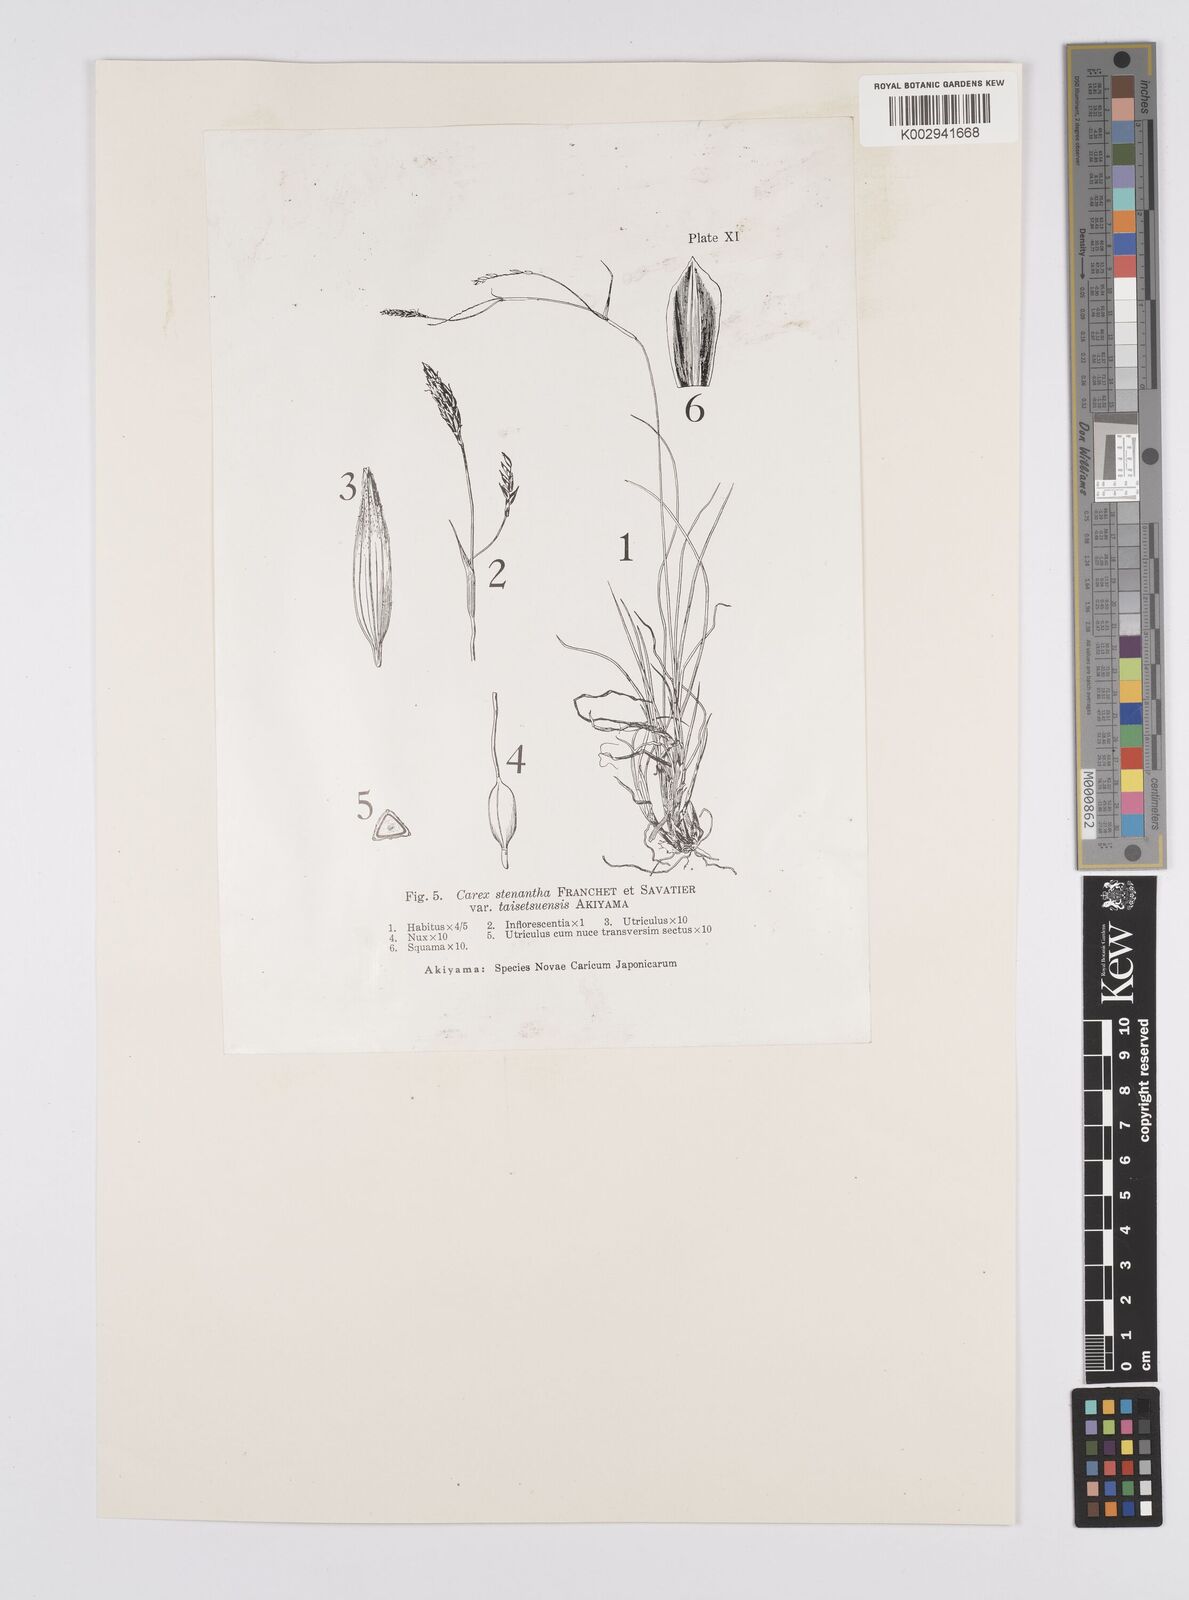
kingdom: Plantae
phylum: Tracheophyta
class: Liliopsida
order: Poales
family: Cyperaceae
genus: Carex
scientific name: Carex stenantha
